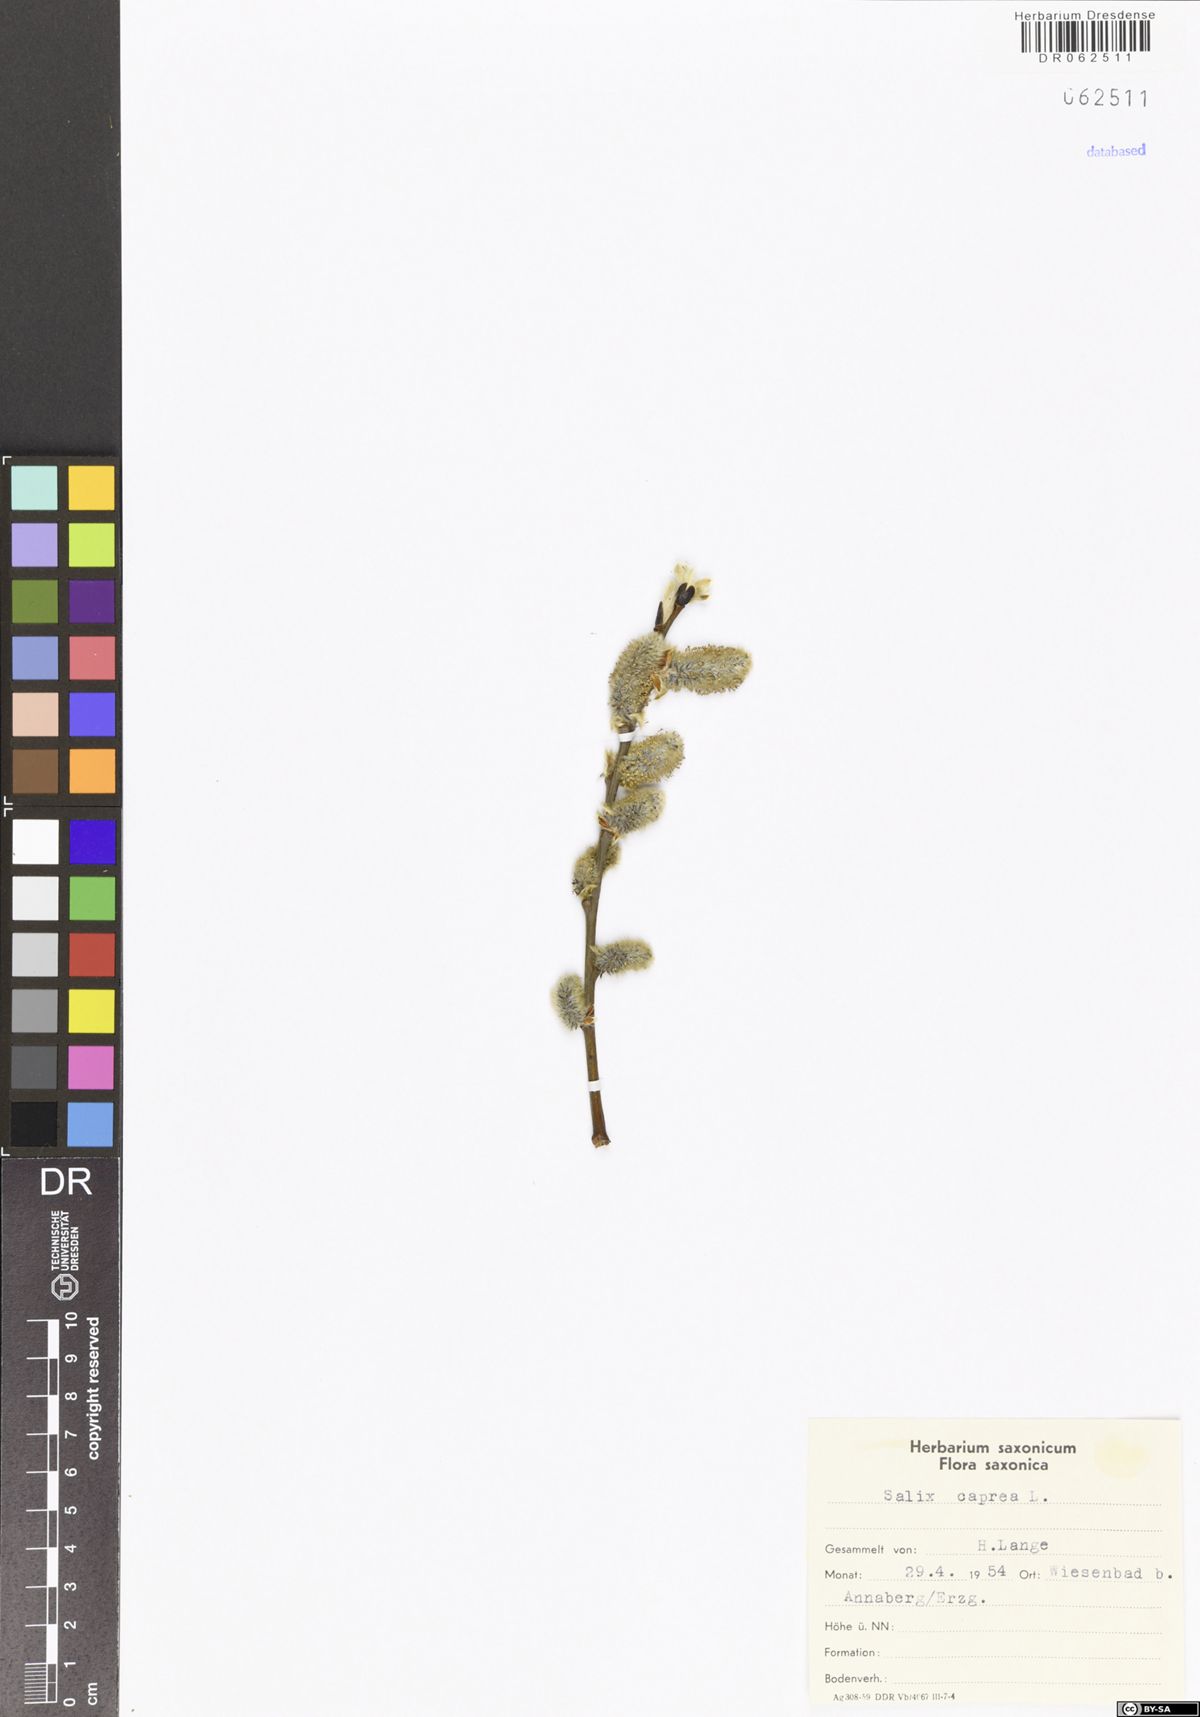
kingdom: Plantae
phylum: Tracheophyta
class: Magnoliopsida
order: Malpighiales
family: Salicaceae
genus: Salix
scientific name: Salix caprea
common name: Goat willow
